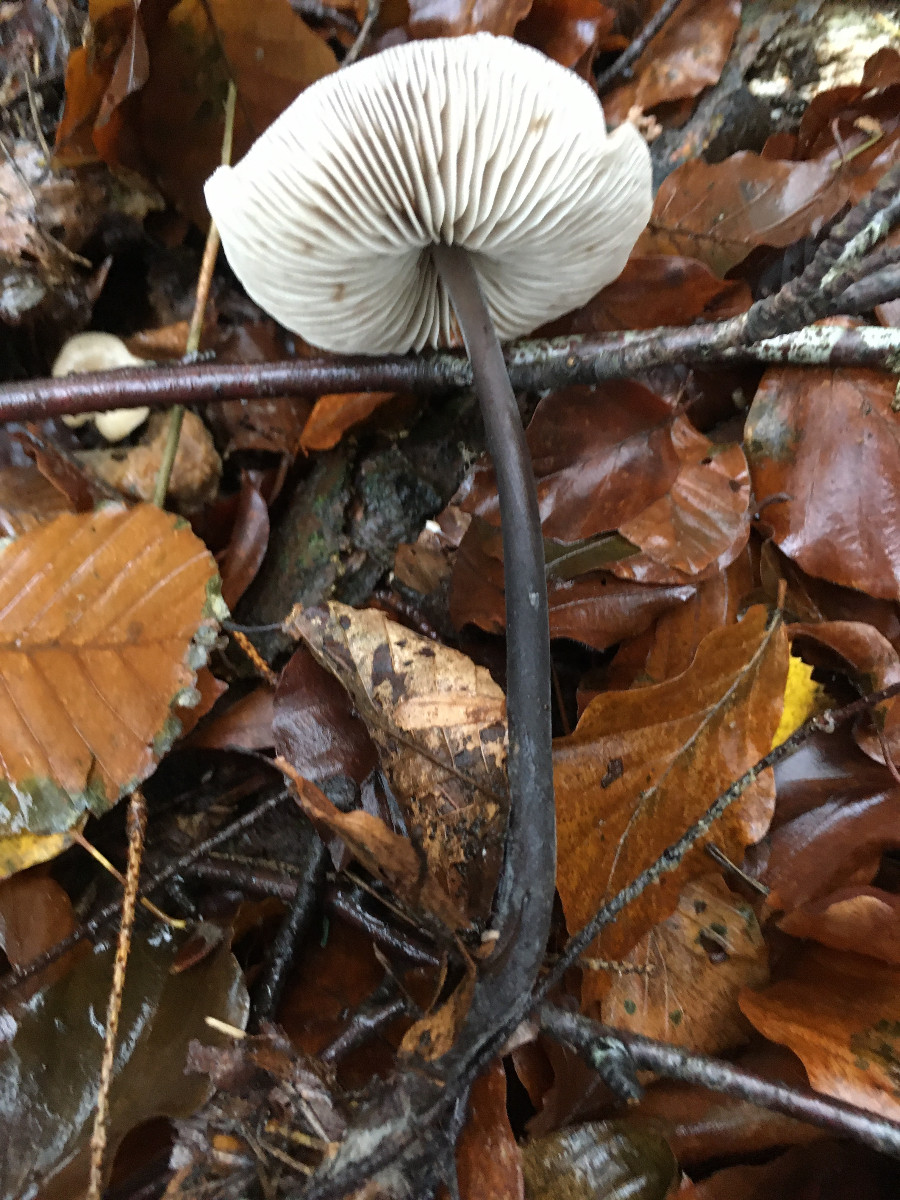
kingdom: Fungi
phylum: Basidiomycota
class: Agaricomycetes
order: Agaricales
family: Omphalotaceae
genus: Mycetinis
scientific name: Mycetinis alliaceus
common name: stor løghat
